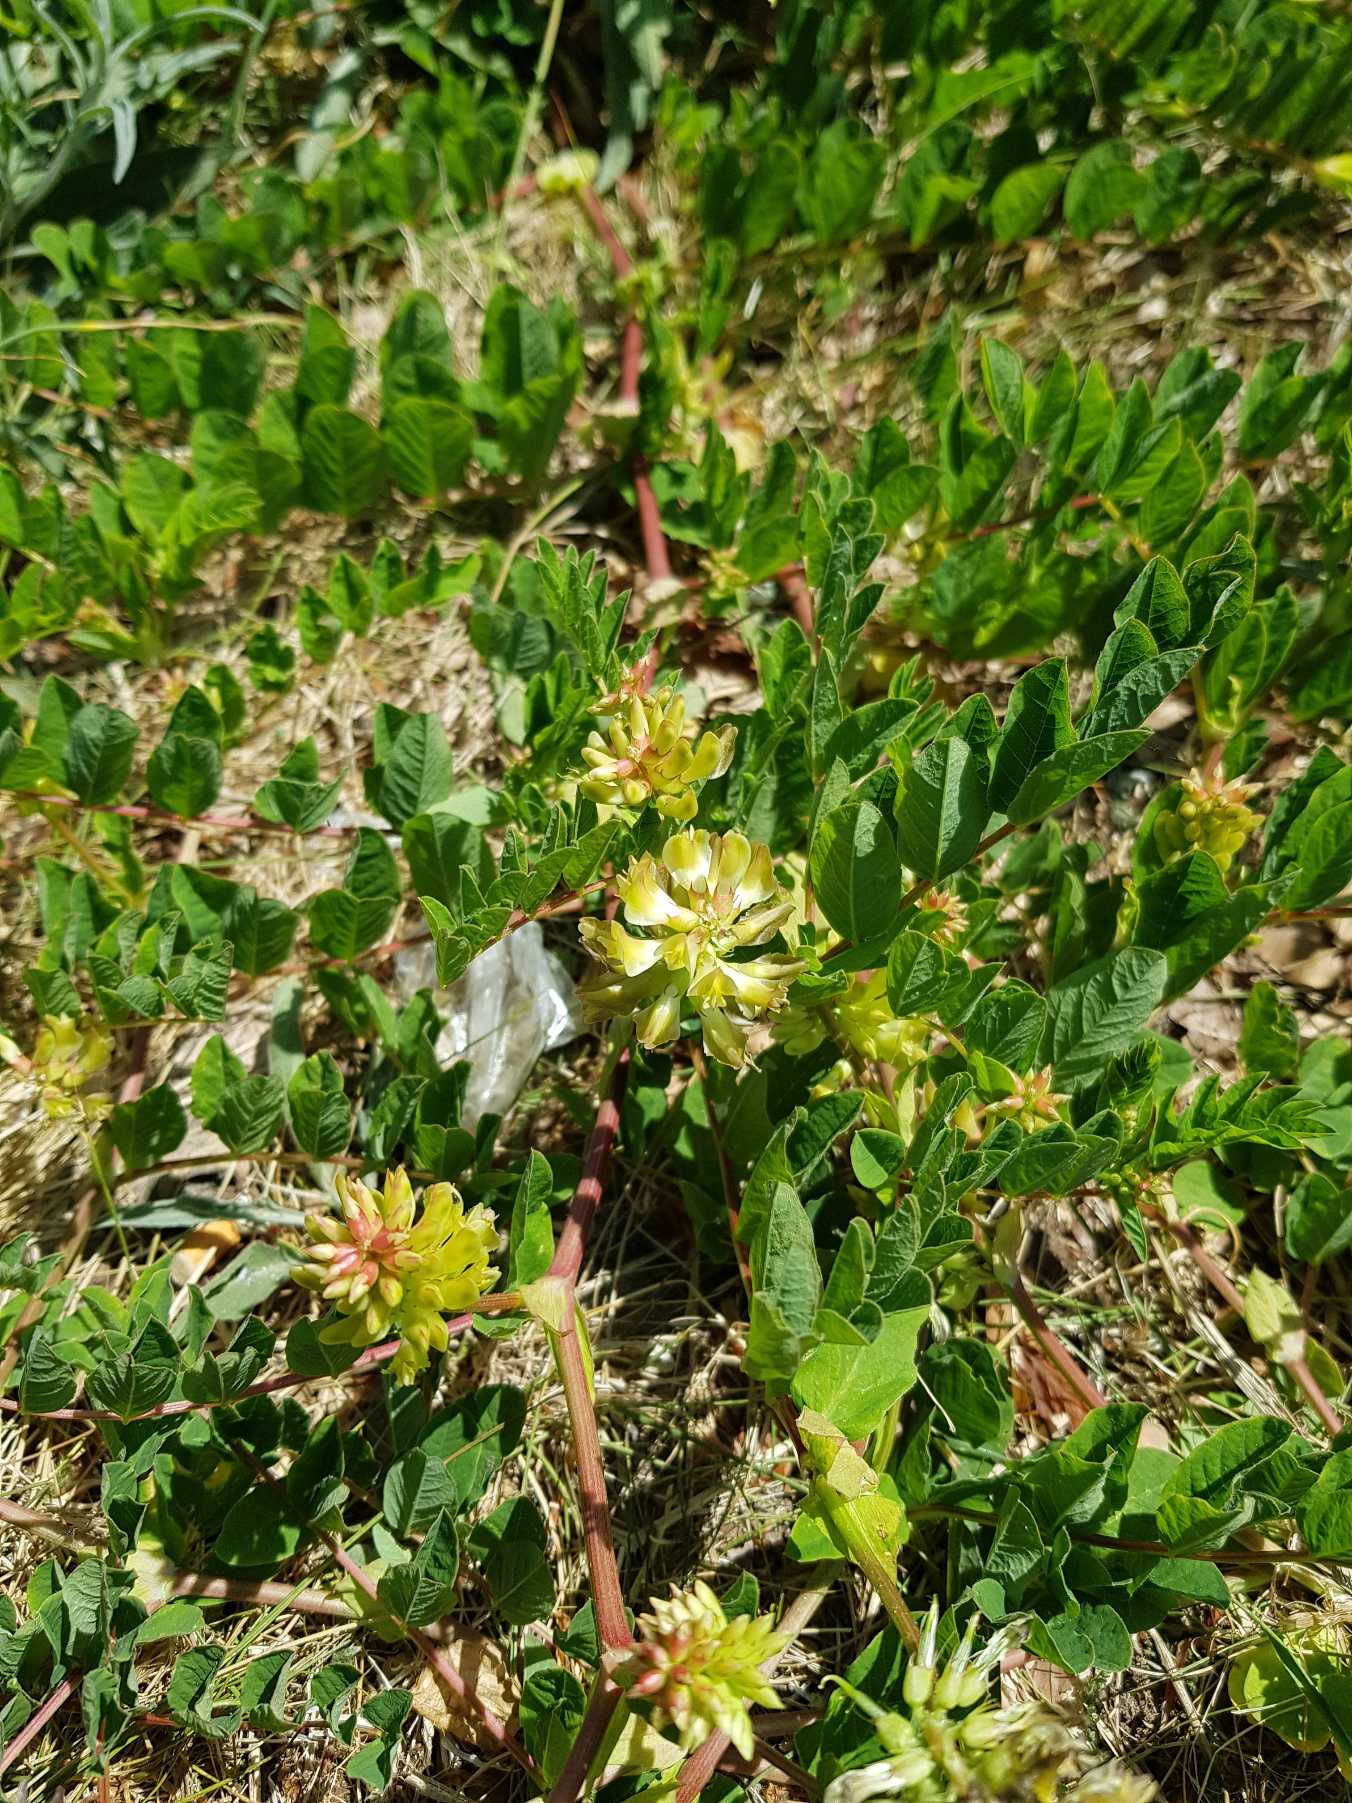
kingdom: Plantae
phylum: Tracheophyta
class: Magnoliopsida
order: Fabales
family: Fabaceae
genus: Astragalus
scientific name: Astragalus glycyphyllos
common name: Sød astragel
